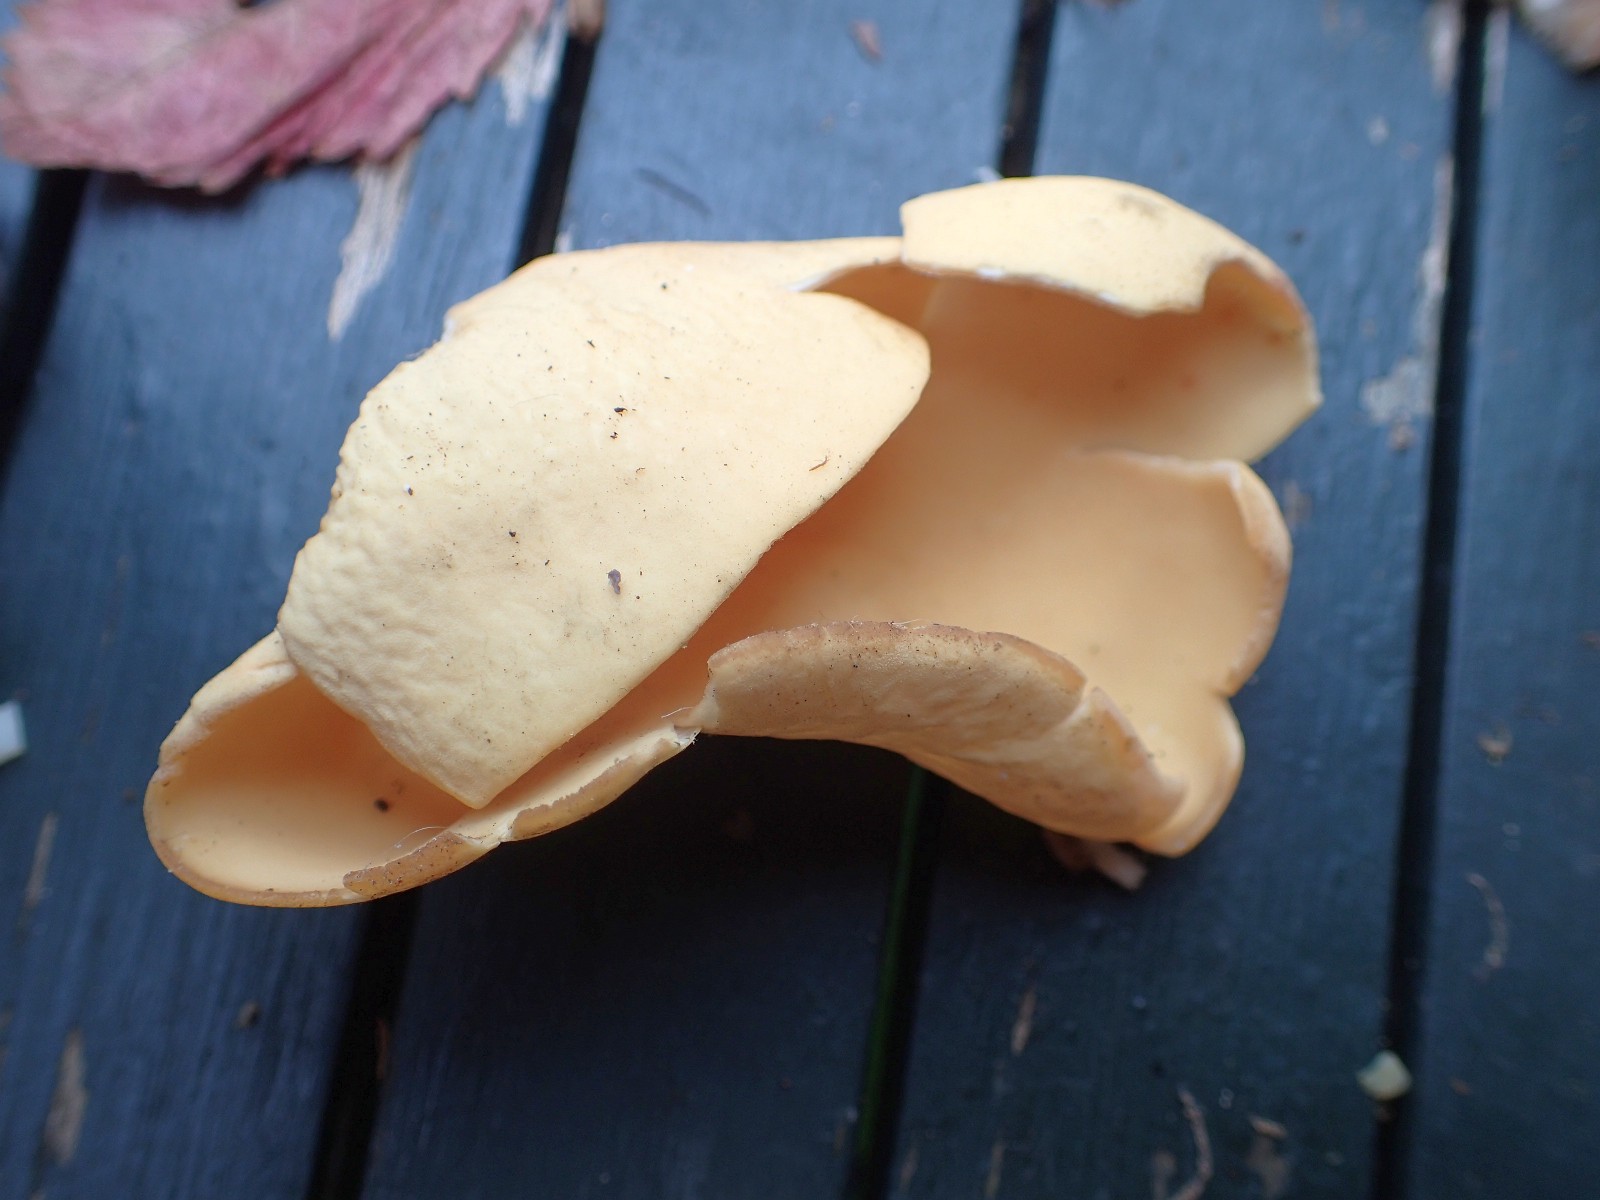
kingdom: Fungi
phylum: Ascomycota
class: Pezizomycetes
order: Pezizales
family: Otideaceae
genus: Otidea
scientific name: Otidea onotica
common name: æsel-ørebæger
